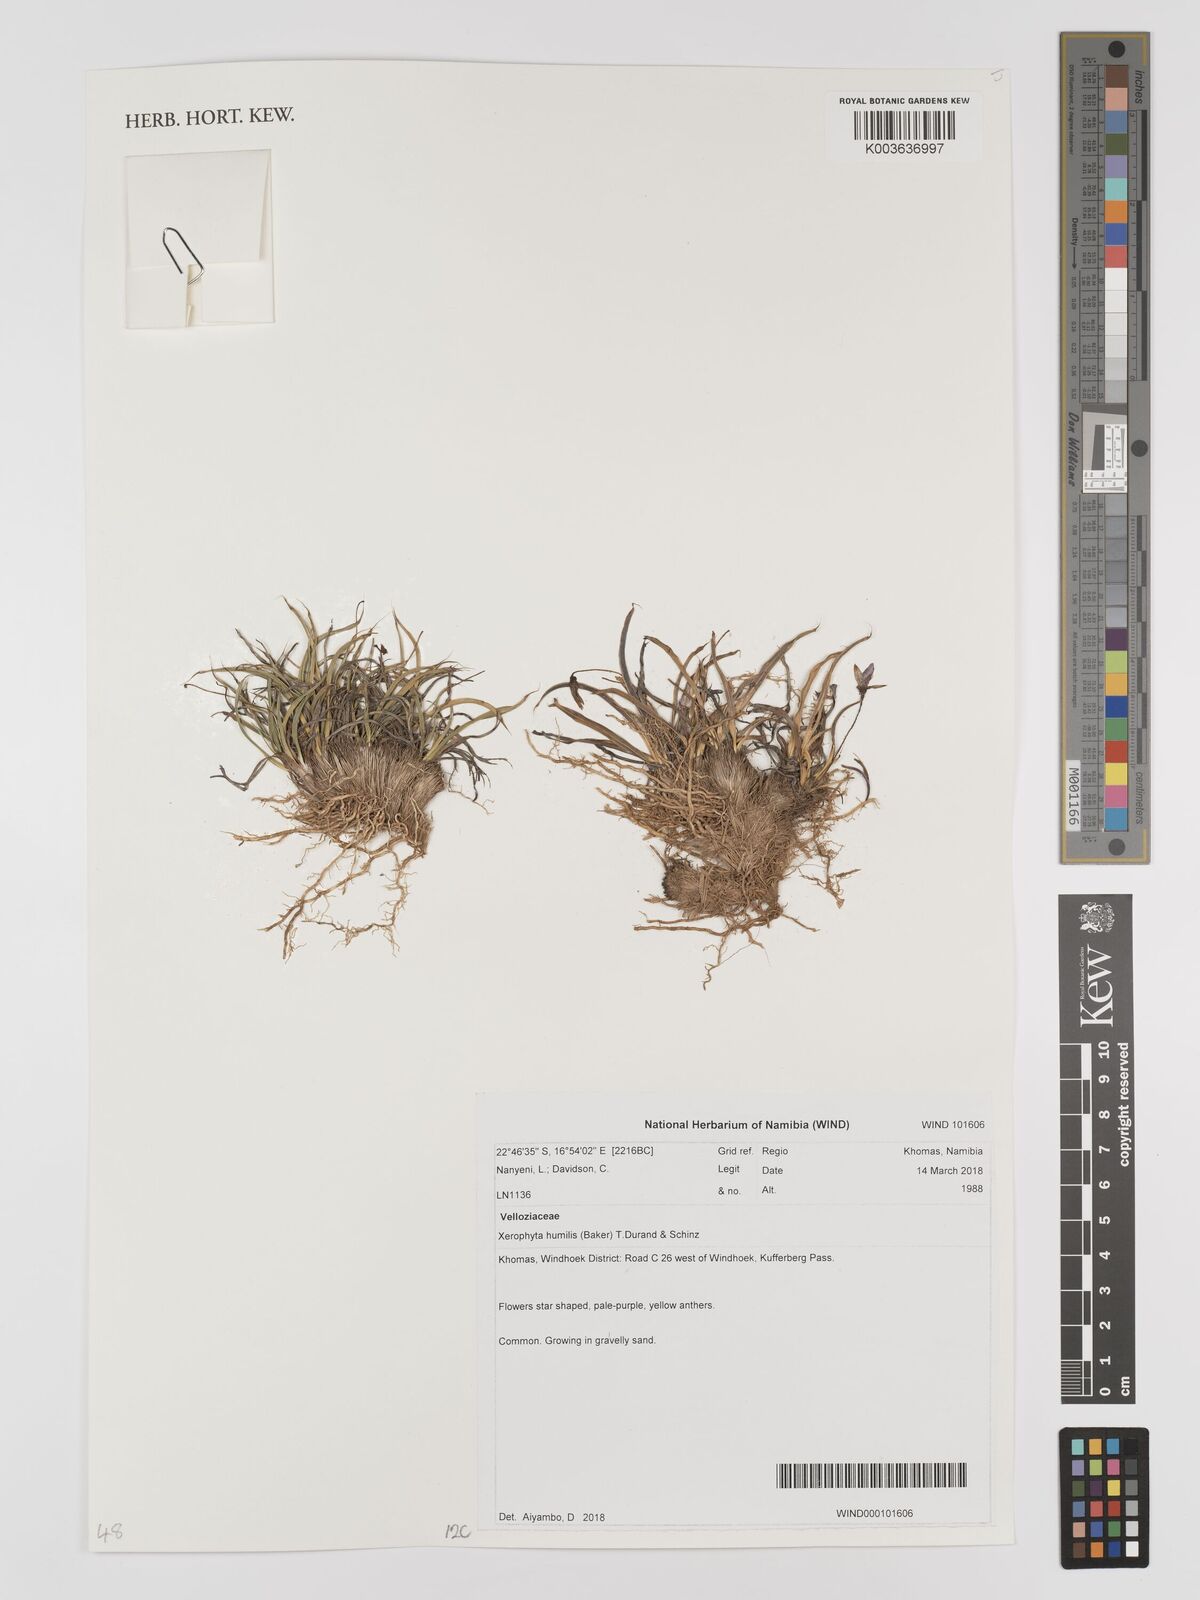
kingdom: Plantae
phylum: Tracheophyta
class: Liliopsida
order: Pandanales
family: Velloziaceae
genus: Xerophyta
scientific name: Xerophyta humilis
